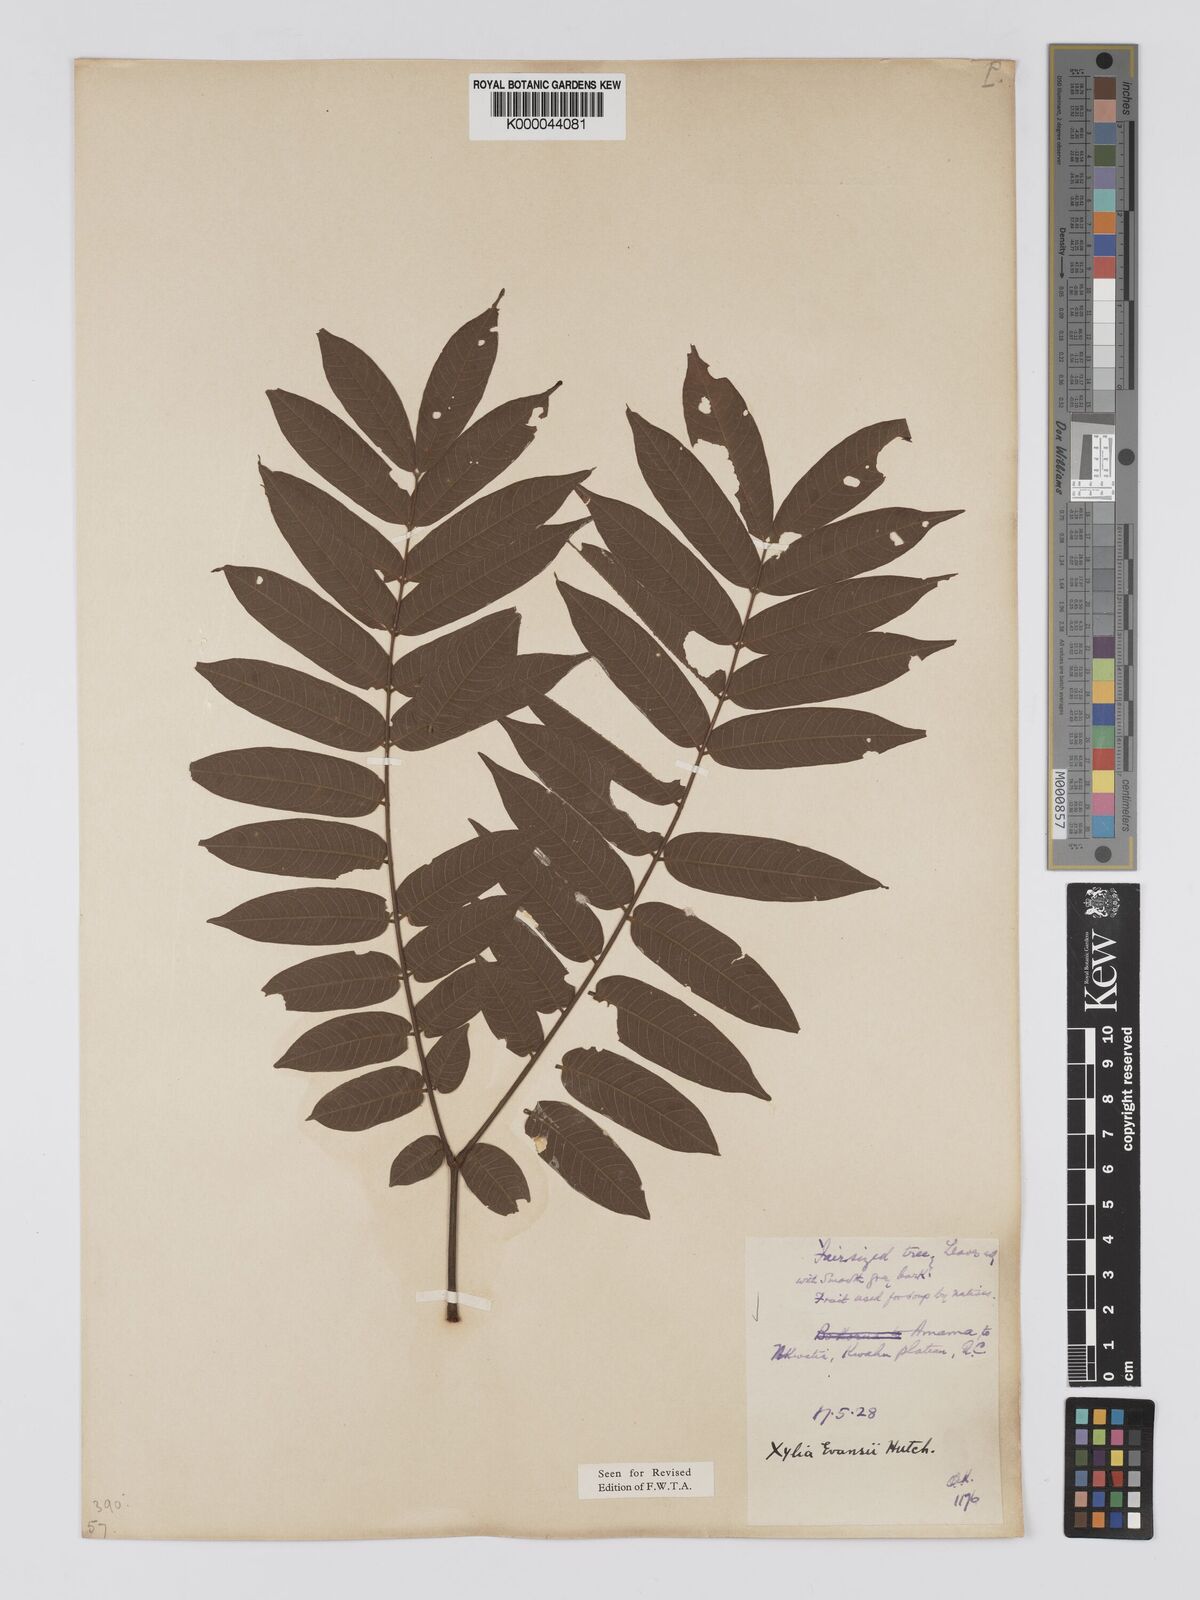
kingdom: Plantae
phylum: Tracheophyta
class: Magnoliopsida
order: Fabales
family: Fabaceae
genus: Xylia
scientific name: Xylia evansii
